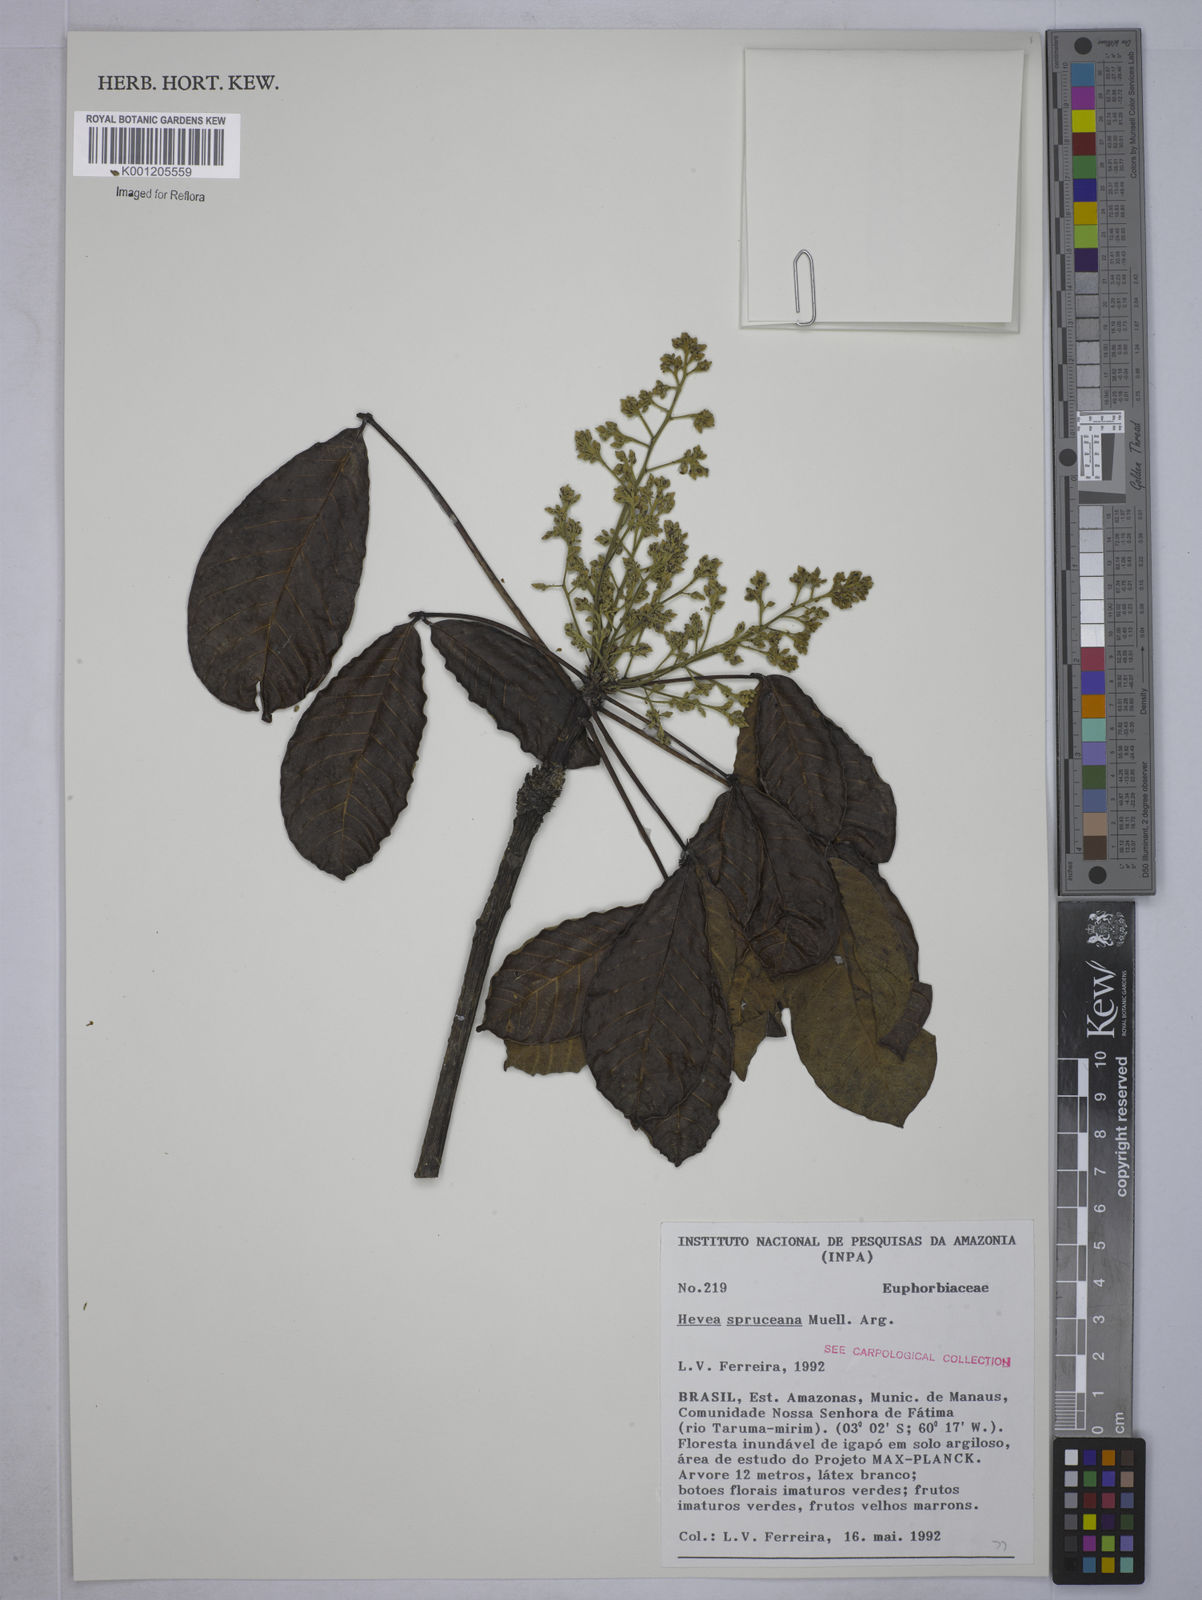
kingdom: Plantae
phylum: Tracheophyta
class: Magnoliopsida
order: Malpighiales
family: Euphorbiaceae
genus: Hevea
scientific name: Hevea
